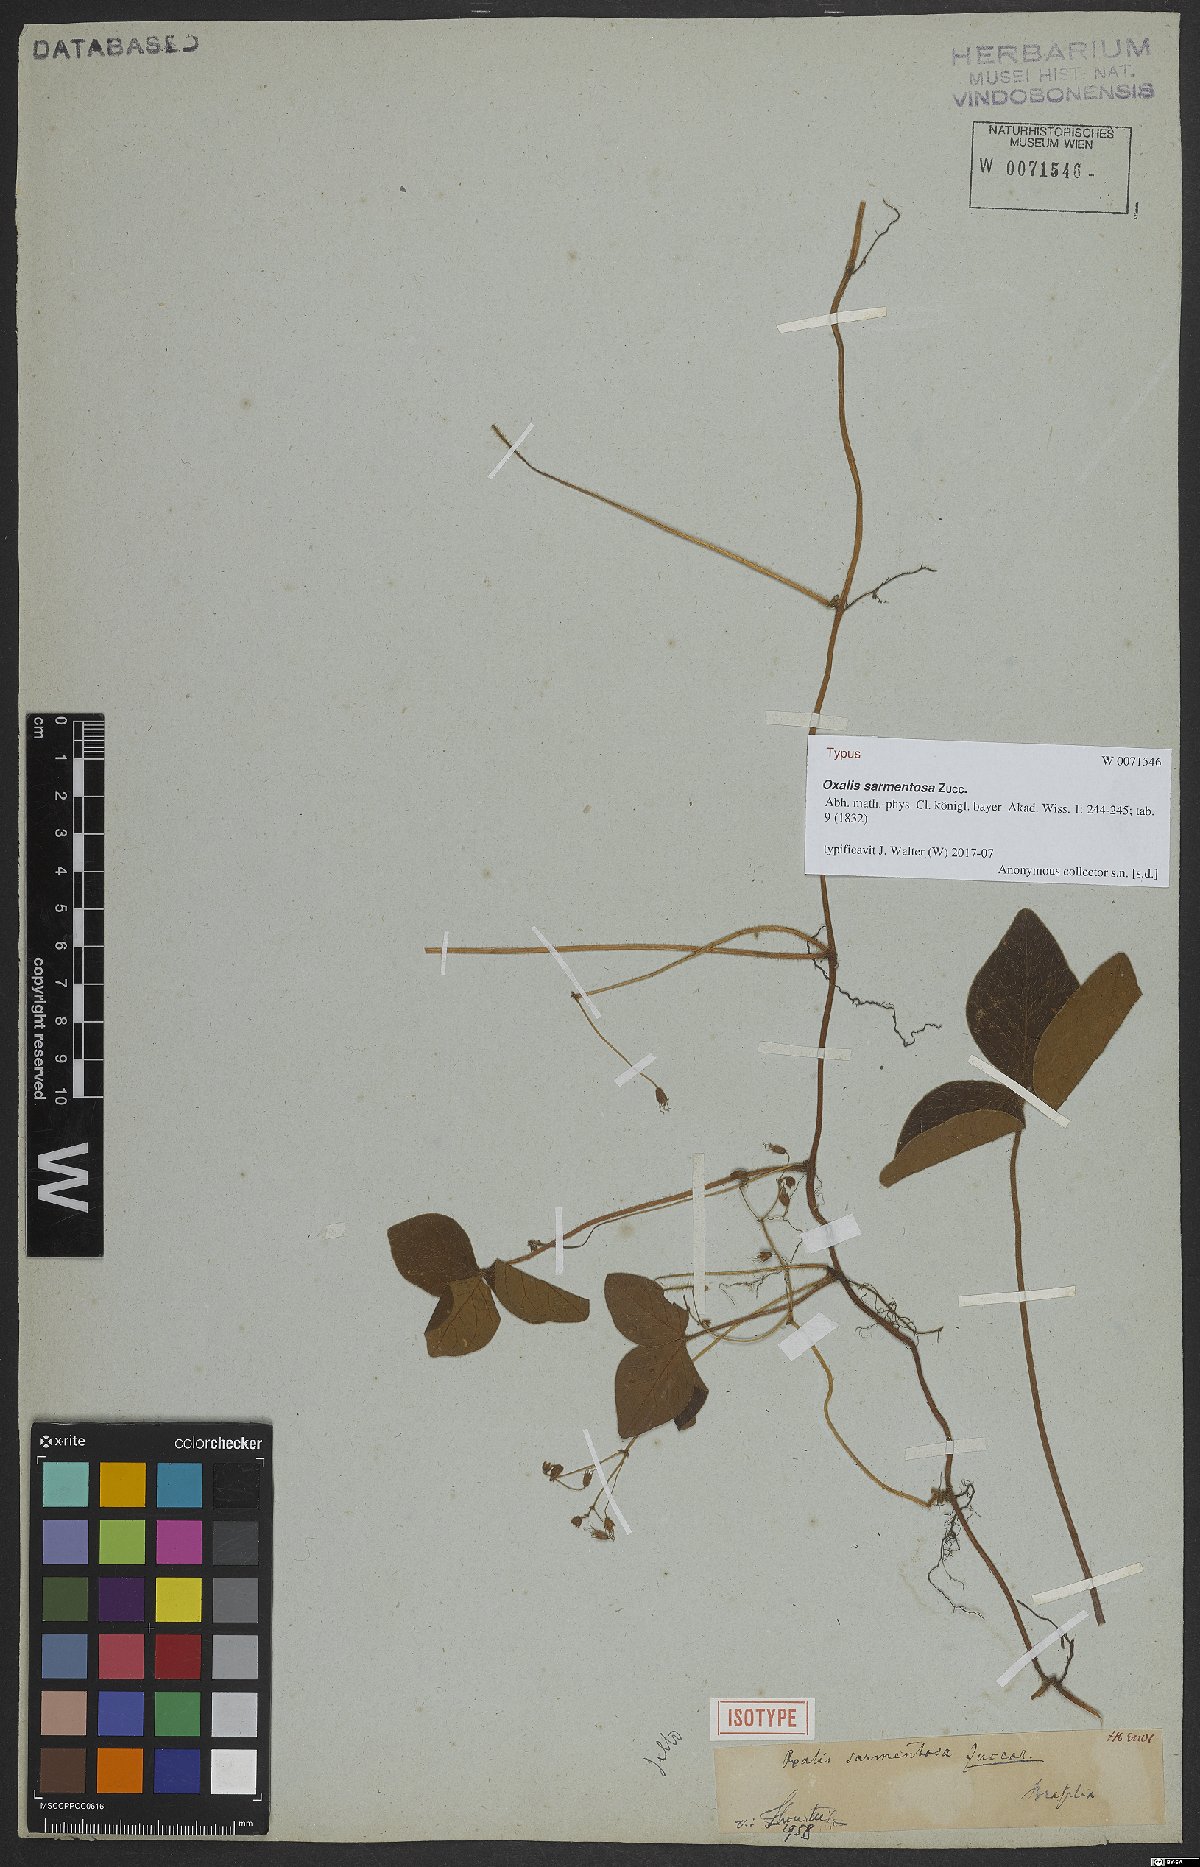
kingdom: Plantae
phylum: Tracheophyta
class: Magnoliopsida
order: Oxalidales
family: Oxalidaceae
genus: Oxalis
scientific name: Oxalis sarmentosa
